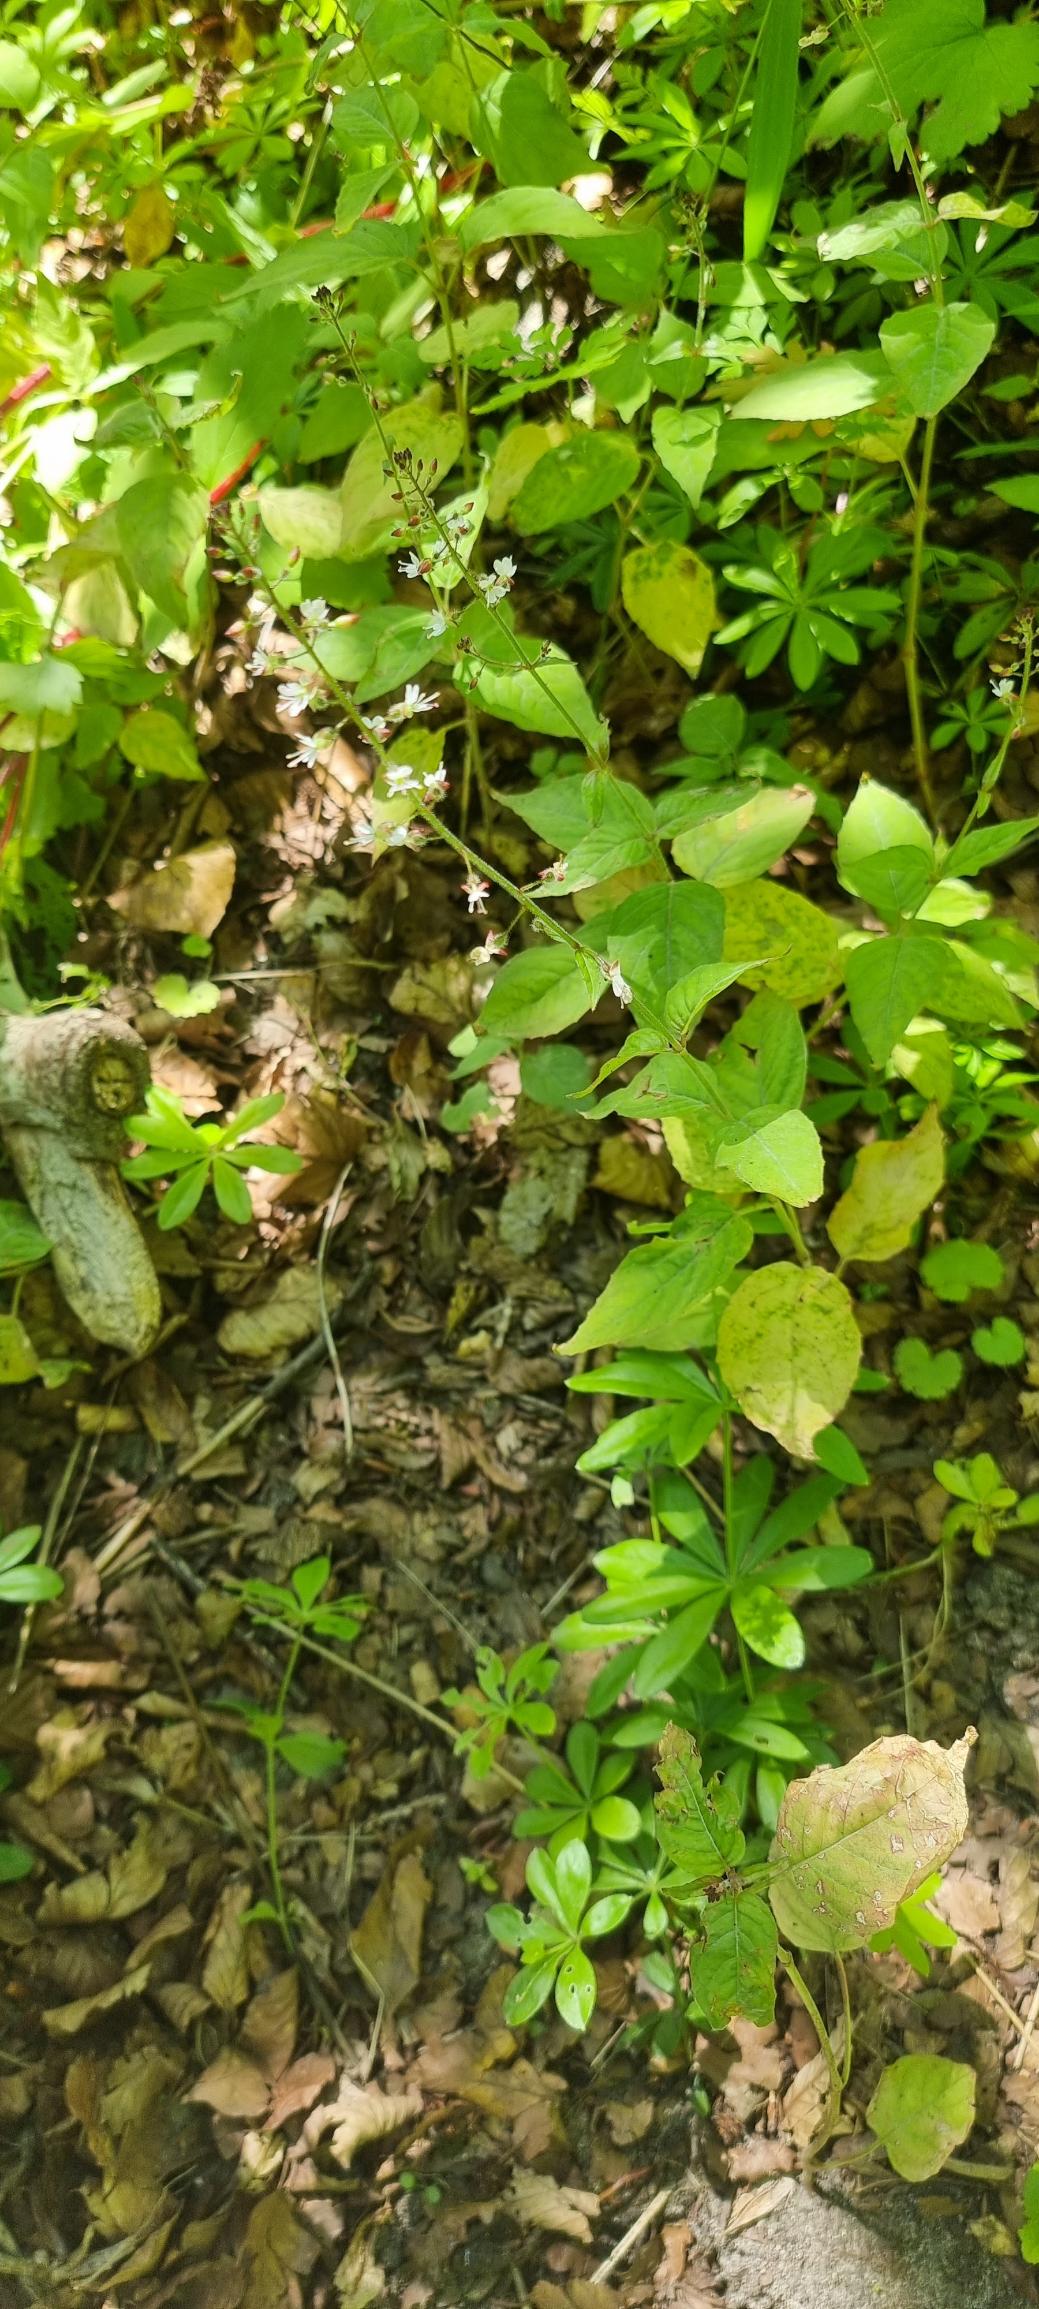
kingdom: Plantae
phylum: Tracheophyta
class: Magnoliopsida
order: Myrtales
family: Onagraceae
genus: Circaea
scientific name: Circaea lutetiana
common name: Dunet steffensurt
